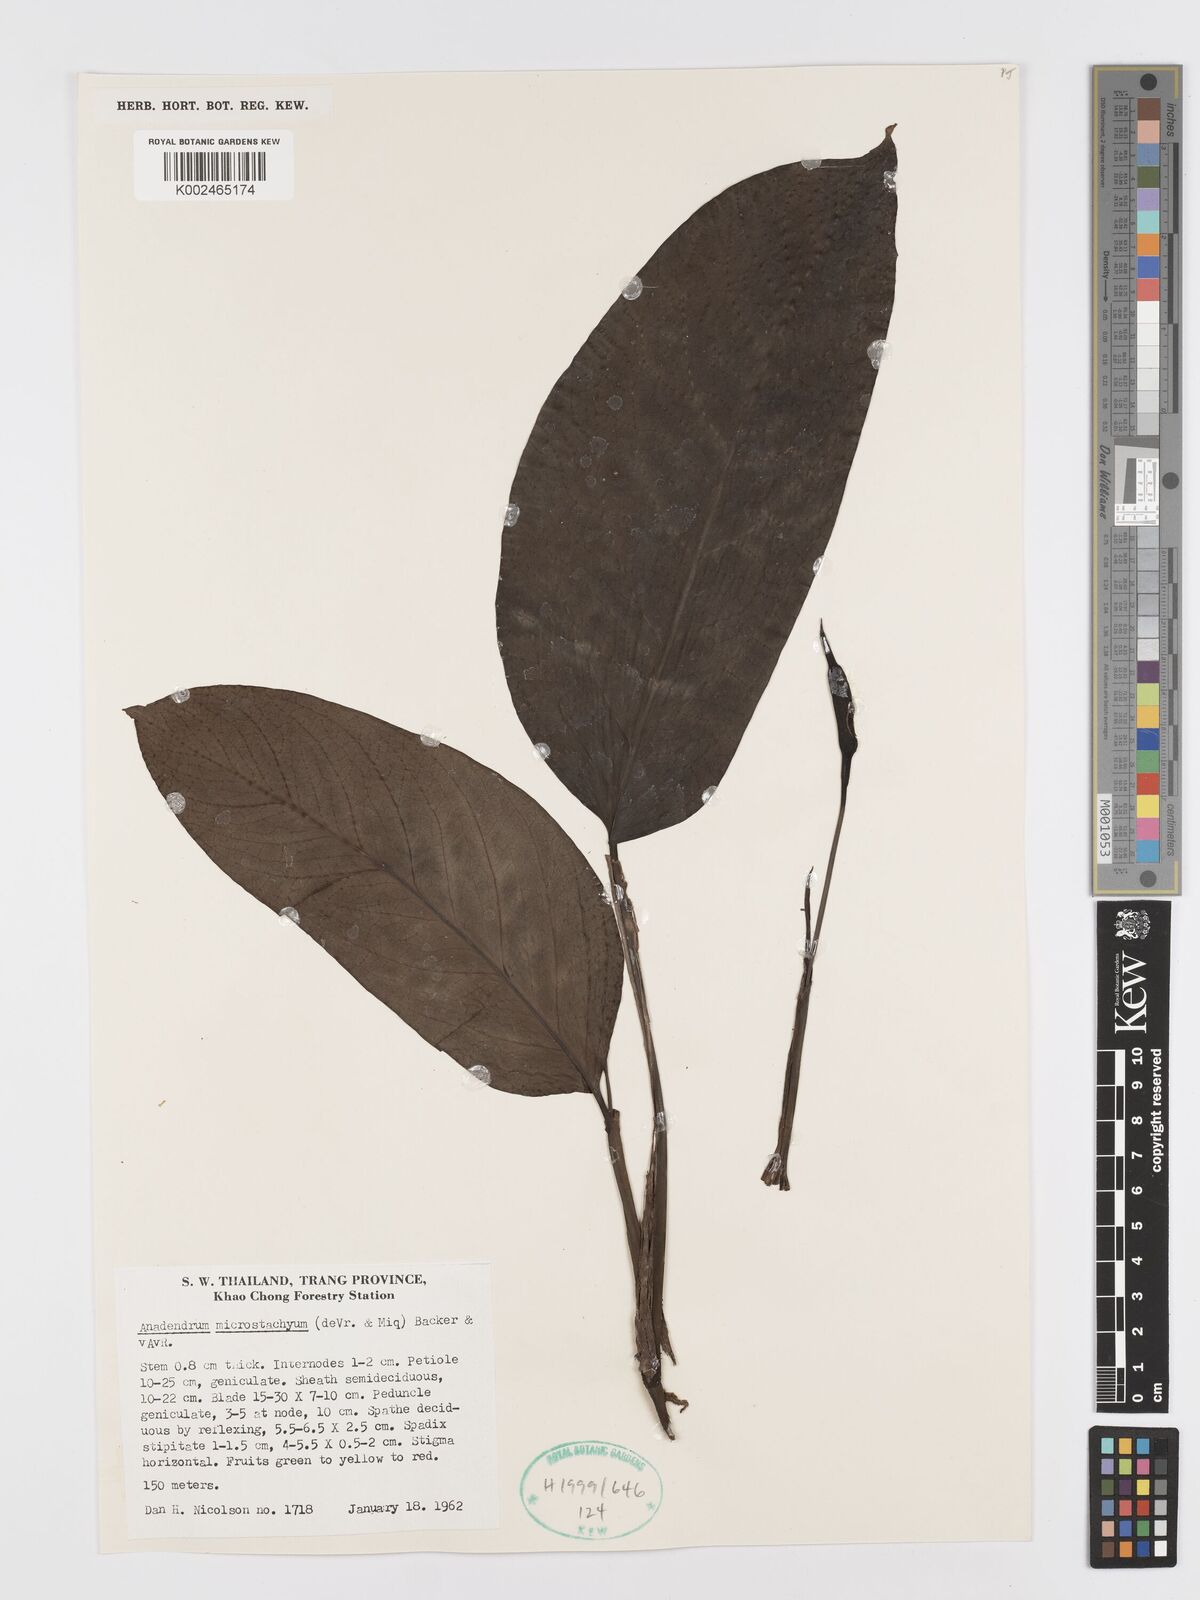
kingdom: Plantae
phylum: Tracheophyta
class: Liliopsida
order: Alismatales
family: Araceae
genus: Anadendrum
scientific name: Anadendrum microstachyum
